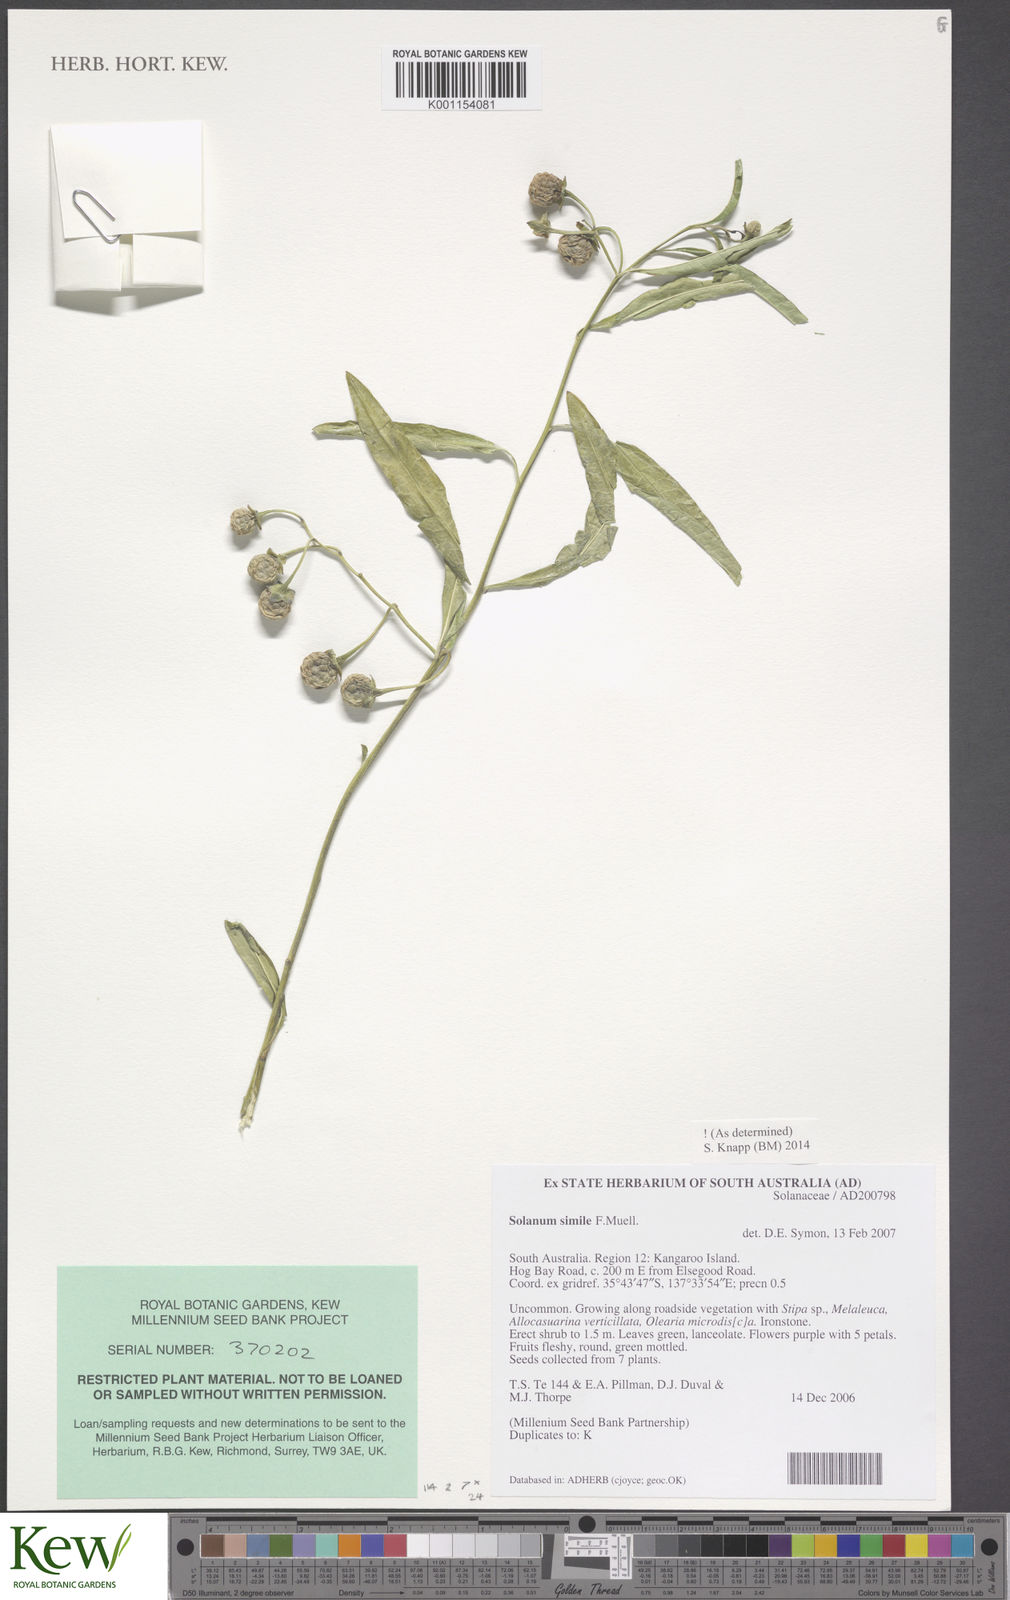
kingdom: Plantae
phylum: Tracheophyta
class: Magnoliopsida
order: Solanales
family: Solanaceae
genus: Solanum
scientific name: Solanum simile
